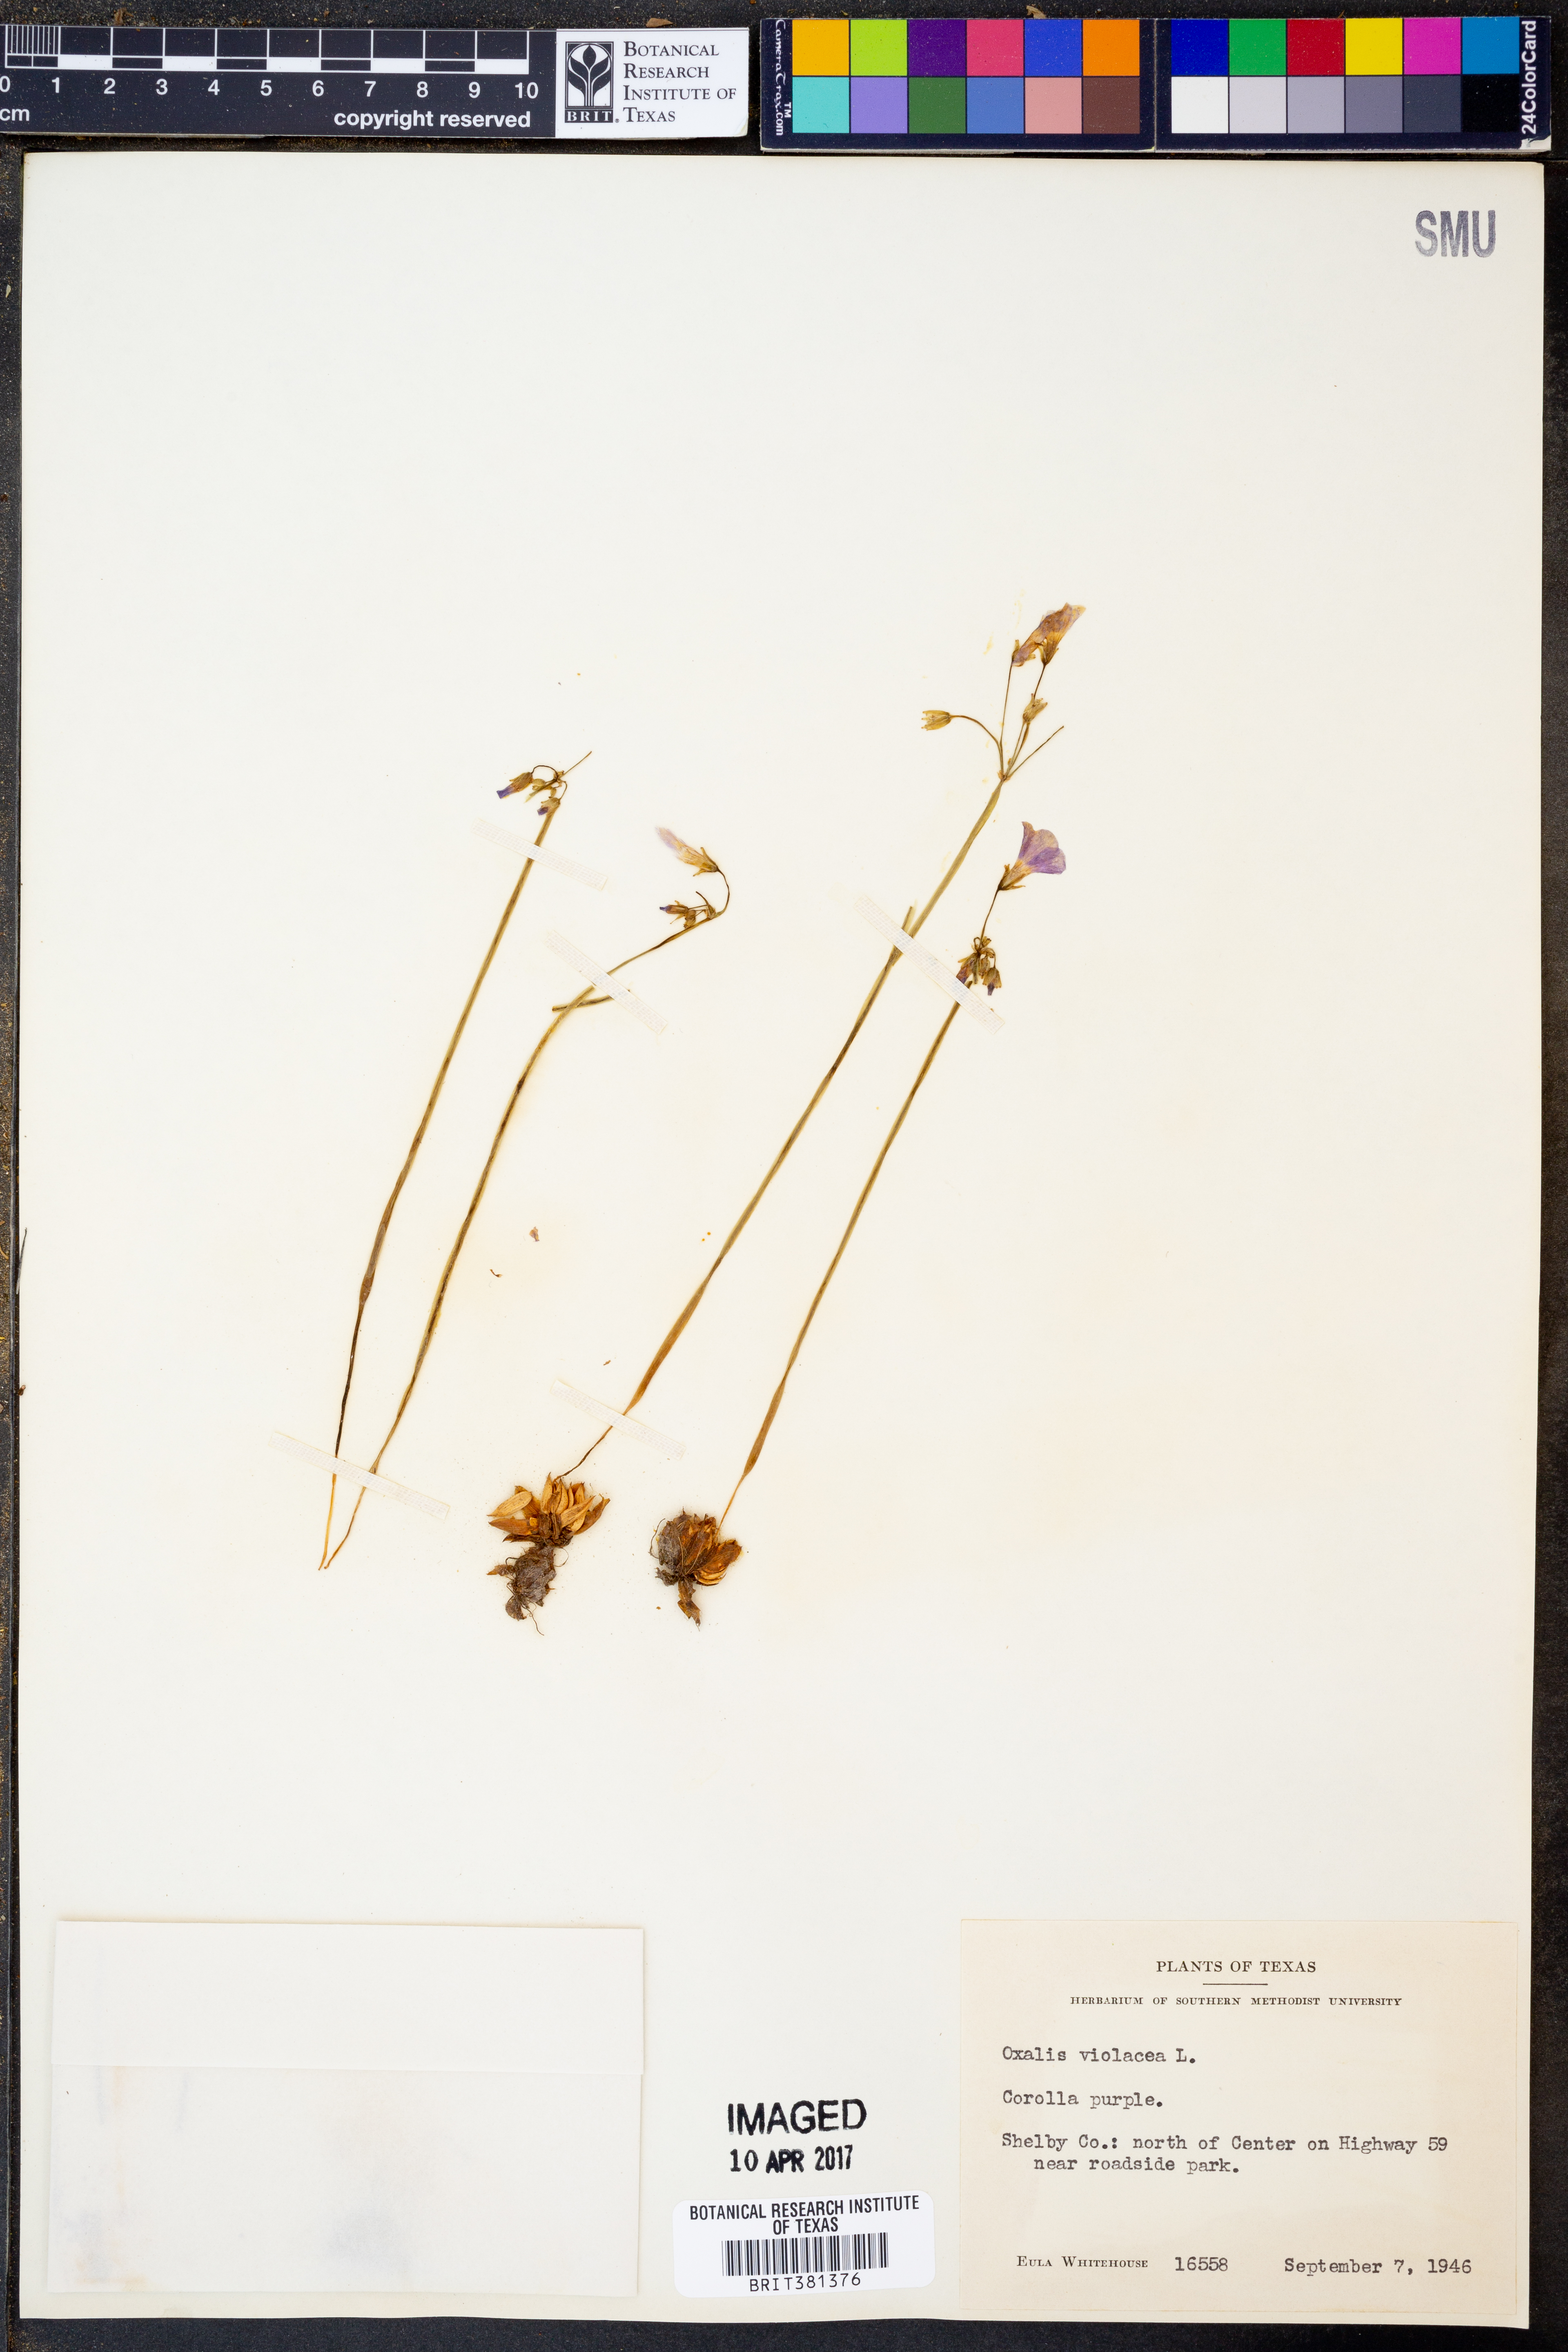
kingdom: Plantae
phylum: Tracheophyta
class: Magnoliopsida
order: Oxalidales
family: Oxalidaceae
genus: Oxalis
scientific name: Oxalis violacea
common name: Violet wood-sorrel
